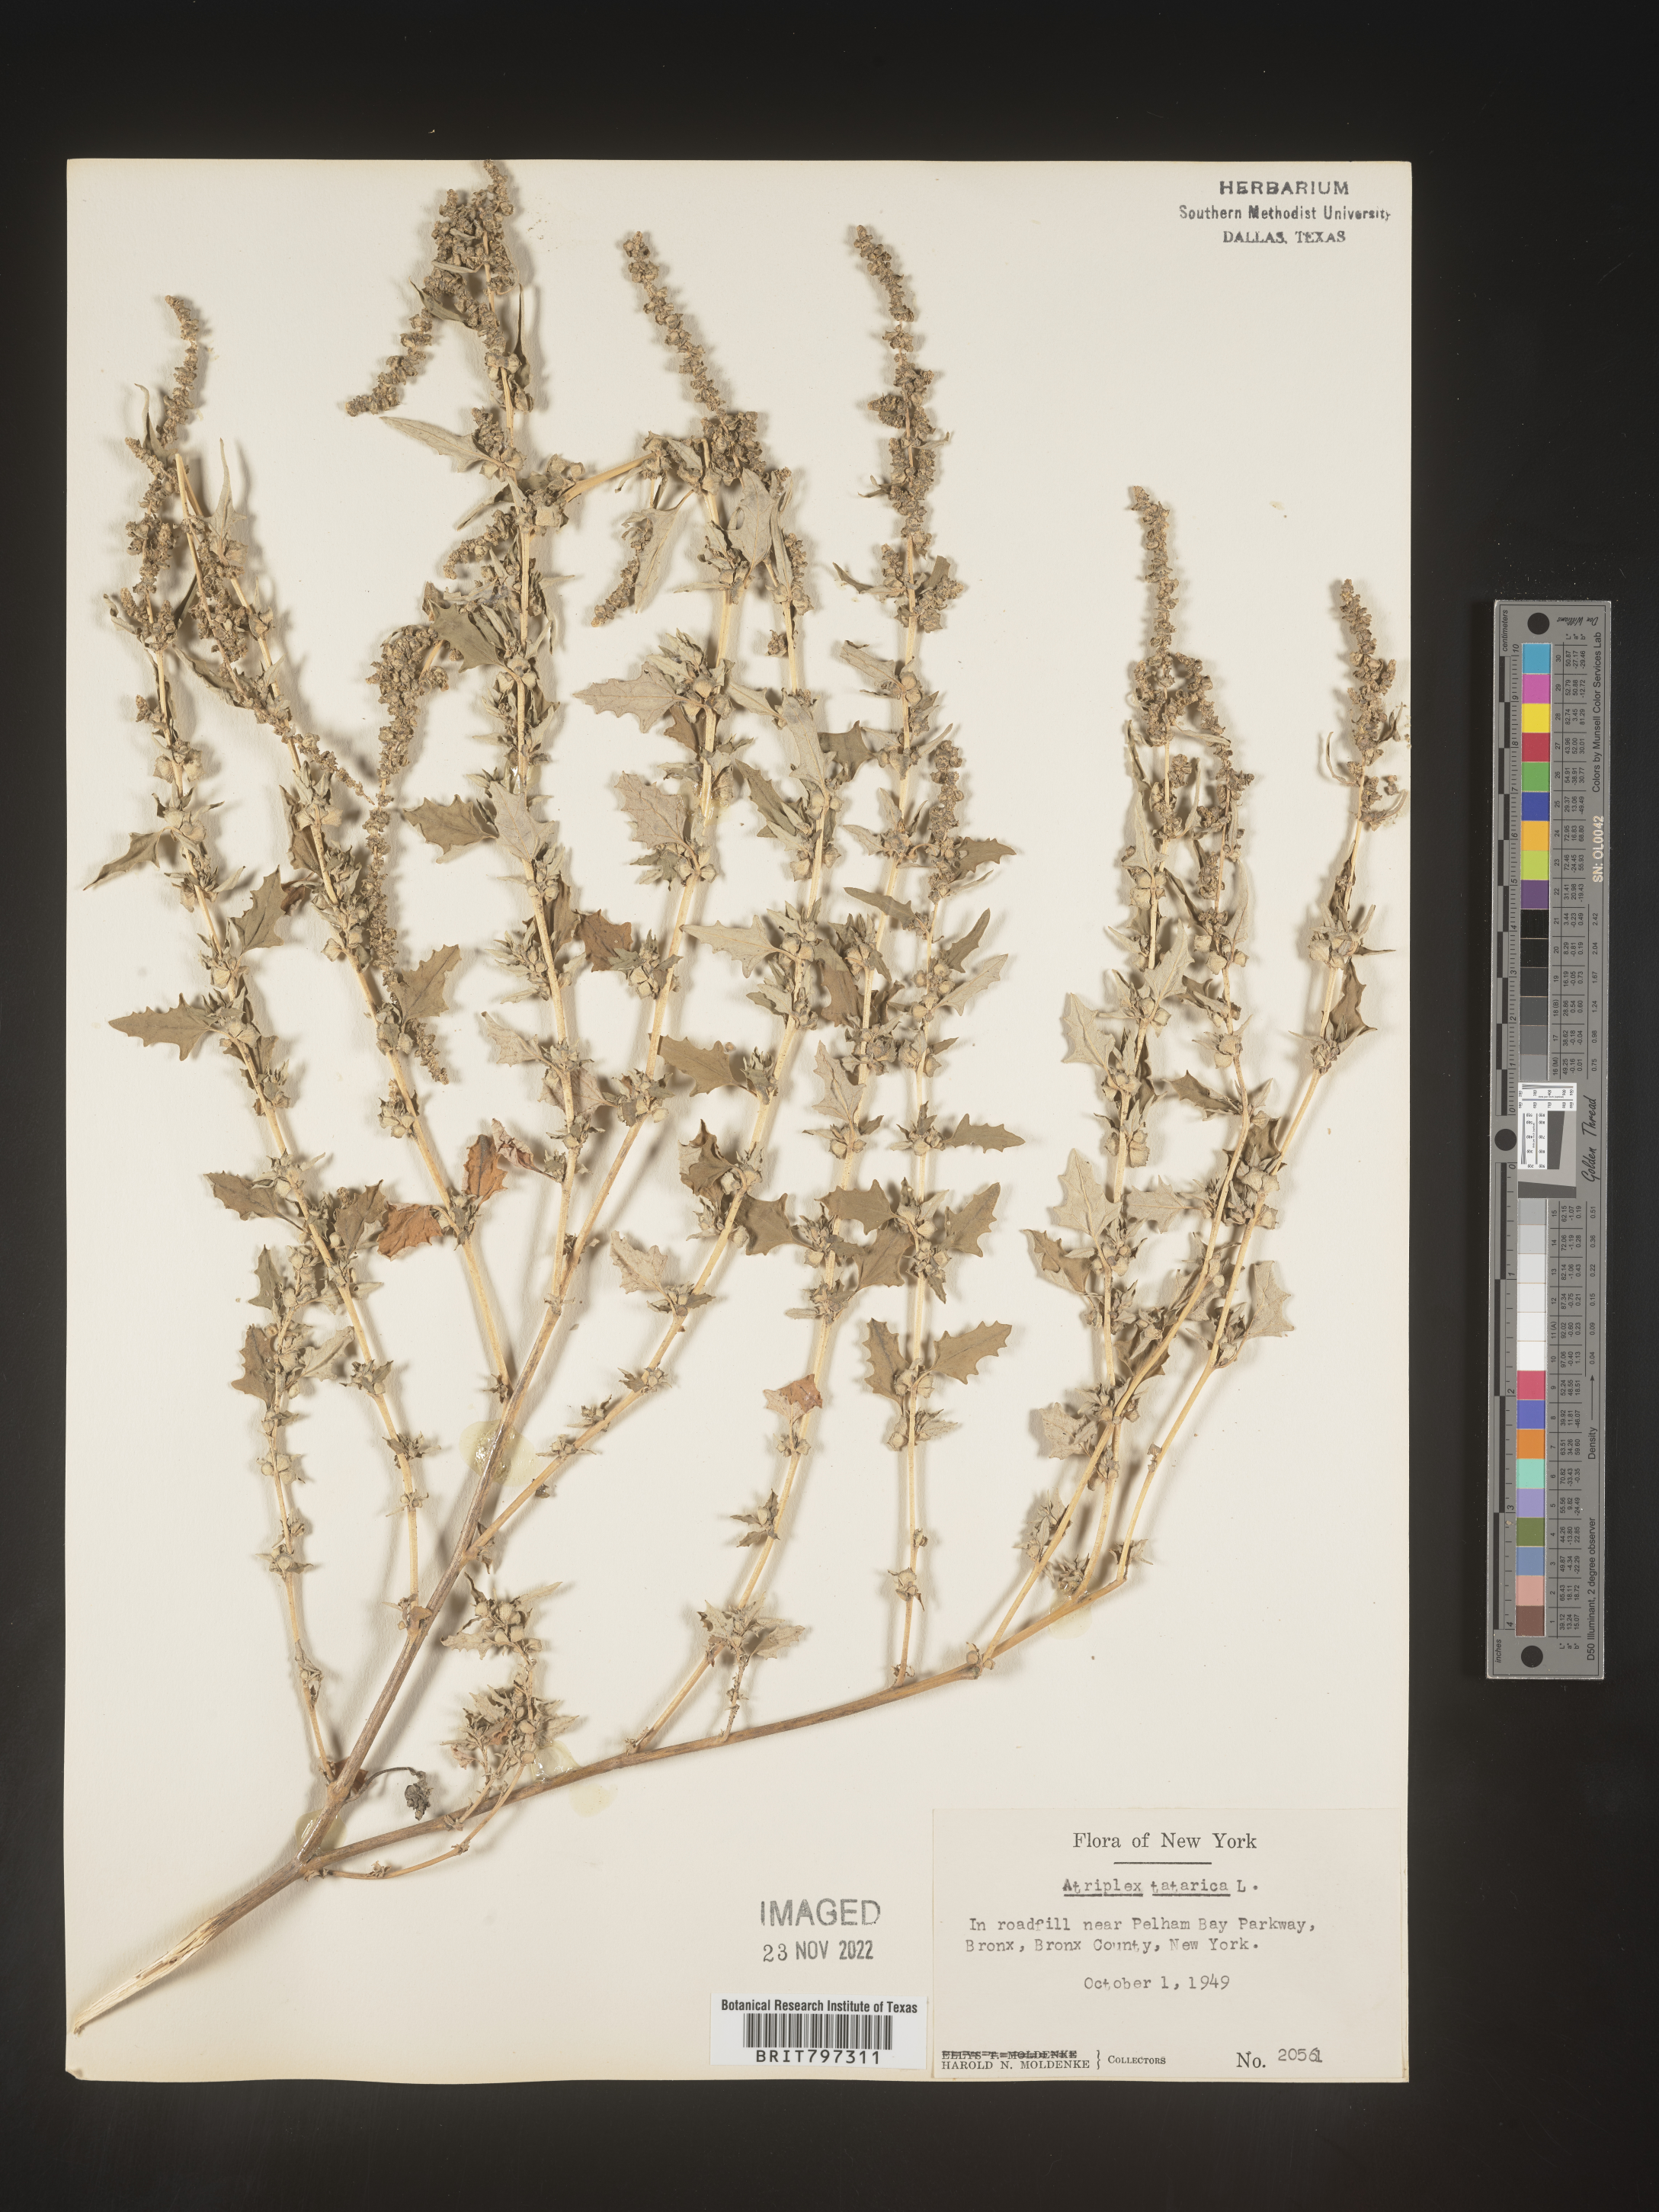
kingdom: Plantae
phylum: Tracheophyta
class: Magnoliopsida
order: Caryophyllales
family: Amaranthaceae
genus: Atriplex
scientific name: Atriplex
